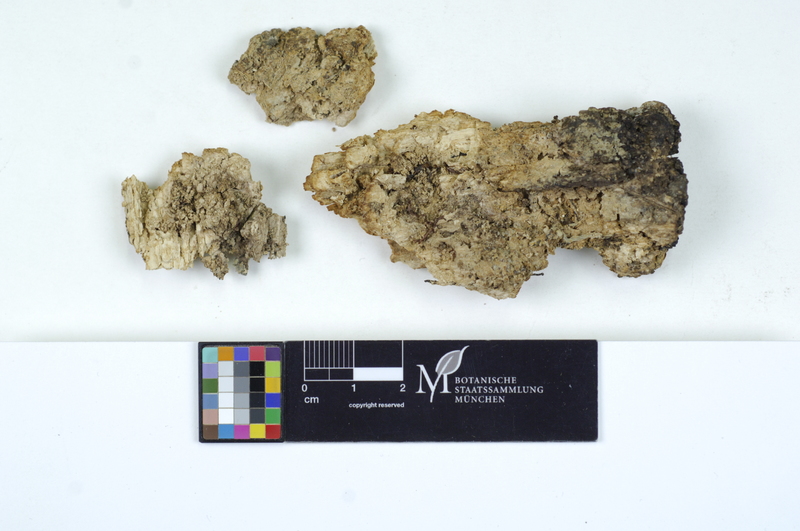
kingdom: Fungi
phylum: Basidiomycota
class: Agaricomycetes
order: Auriculariales
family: Hyaloriaceae
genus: Protomerulius
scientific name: Protomerulius dubius
